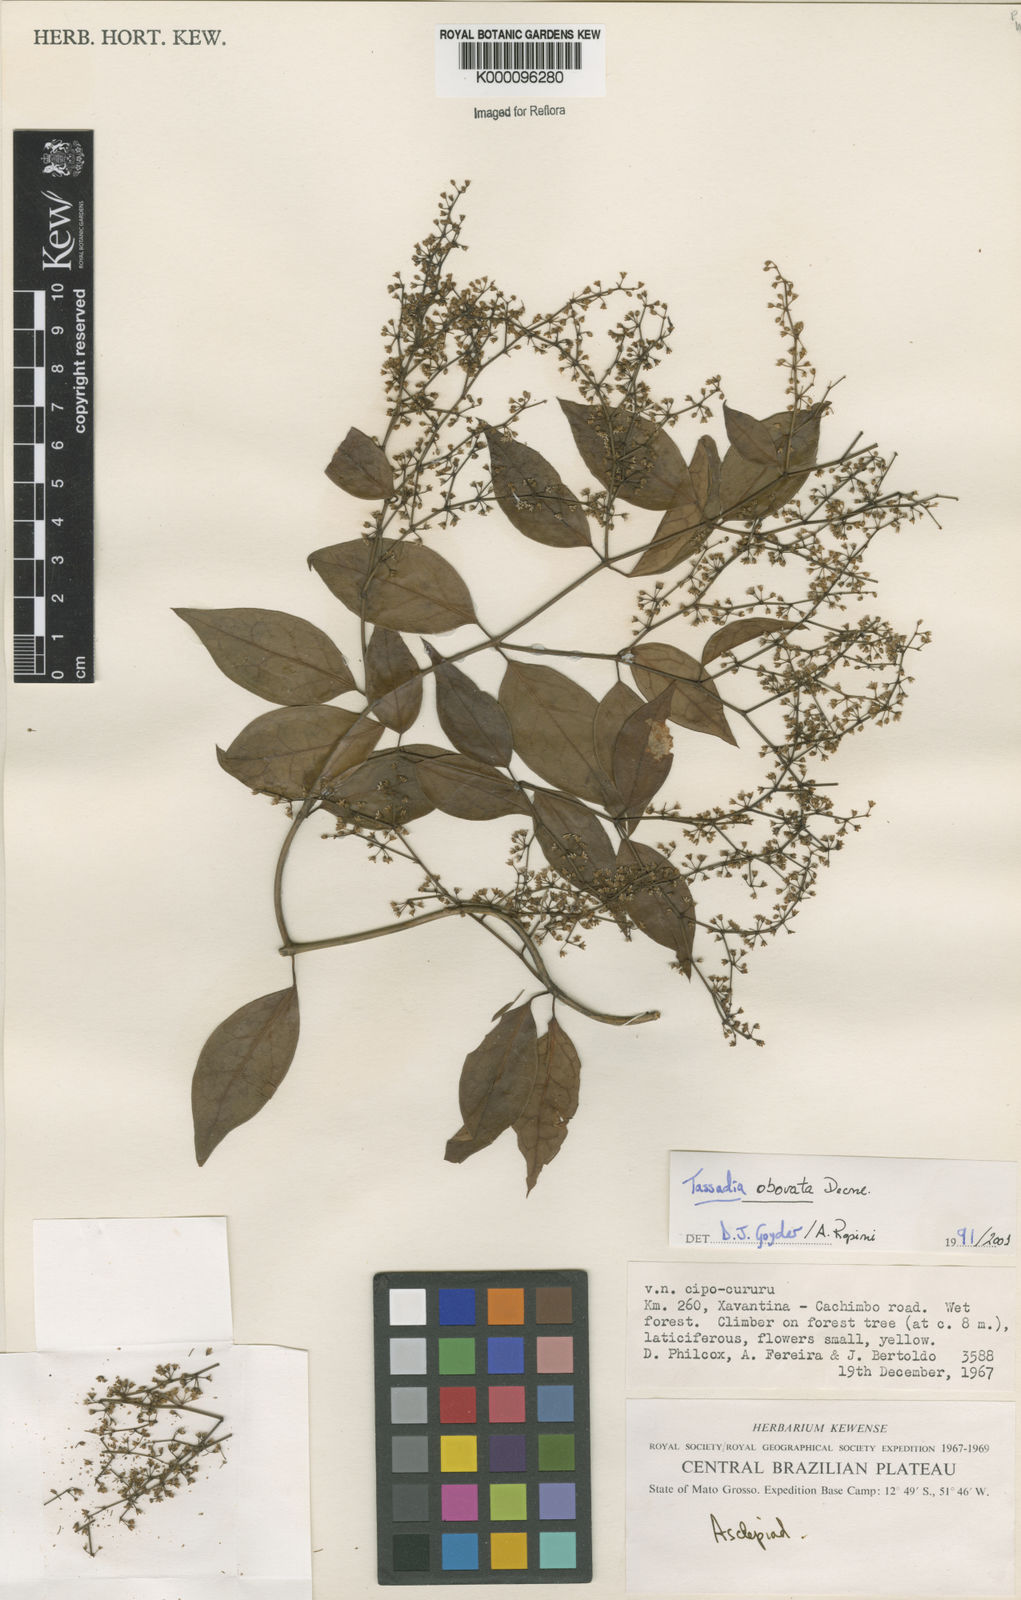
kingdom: Plantae
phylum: Tracheophyta
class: Magnoliopsida
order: Gentianales
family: Apocynaceae
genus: Tassadia
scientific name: Tassadia obovata
